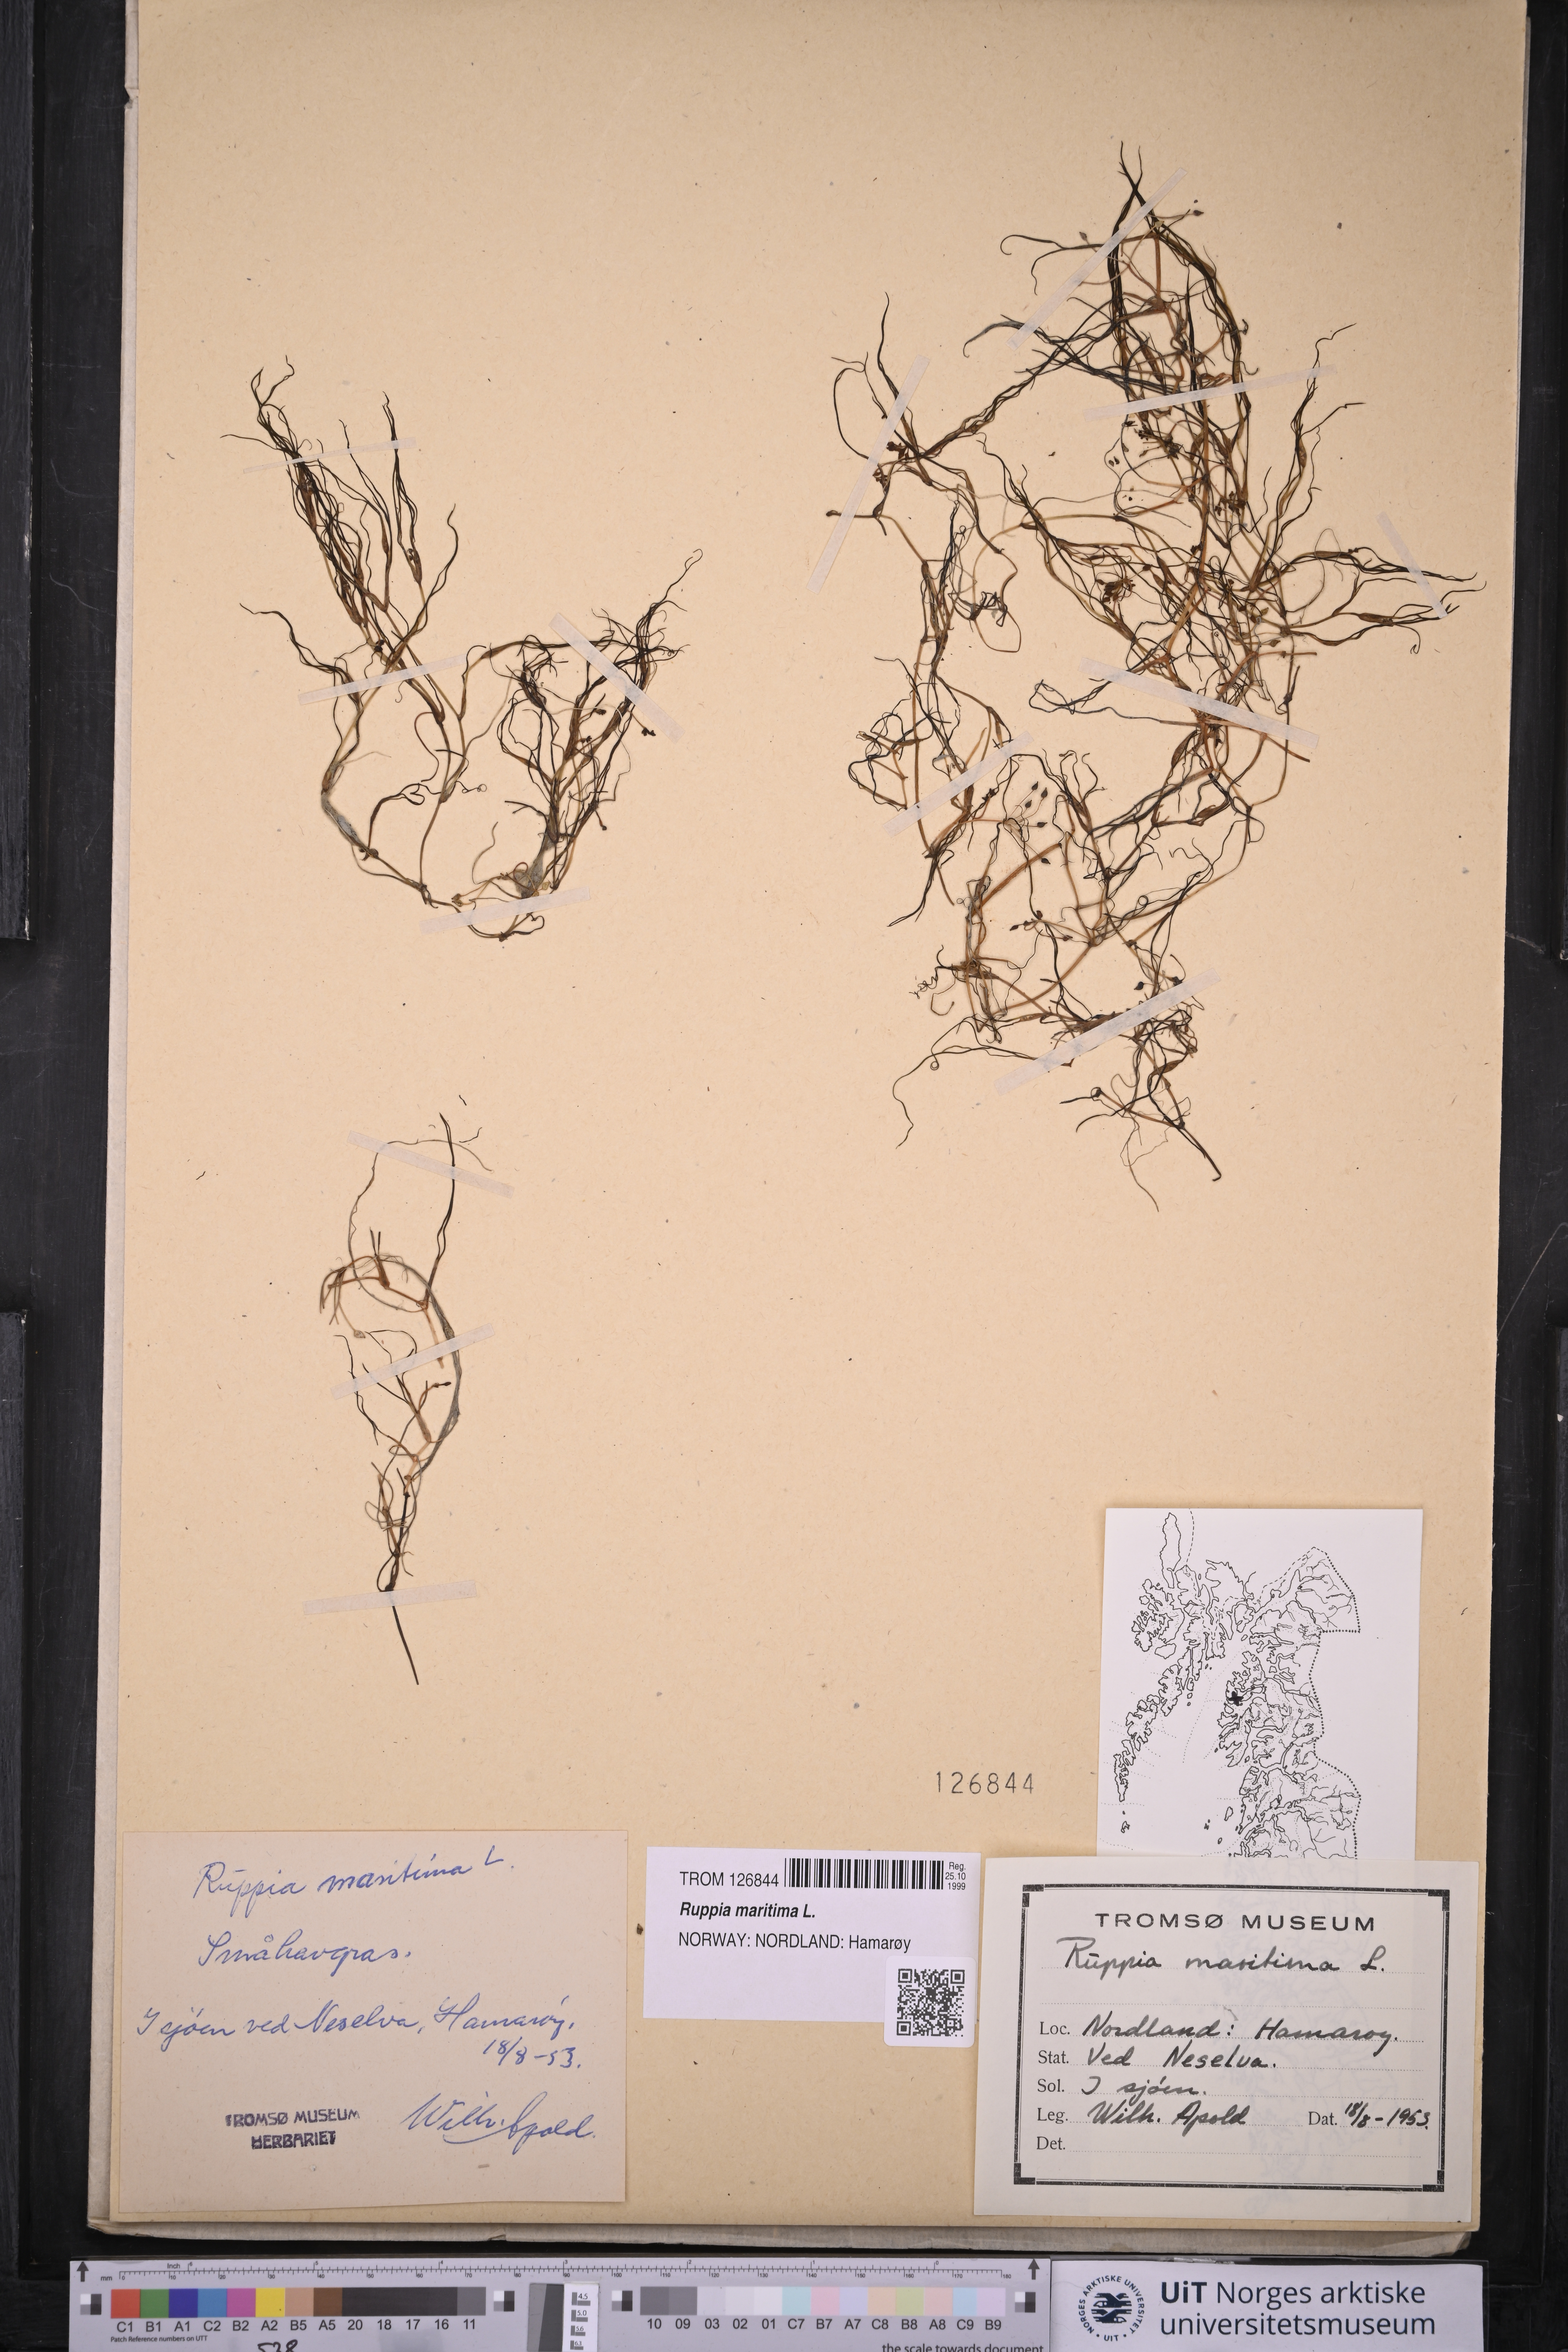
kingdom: Plantae
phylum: Tracheophyta
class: Liliopsida
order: Alismatales
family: Ruppiaceae
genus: Ruppia
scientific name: Ruppia maritima
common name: Beaked tasselweed
